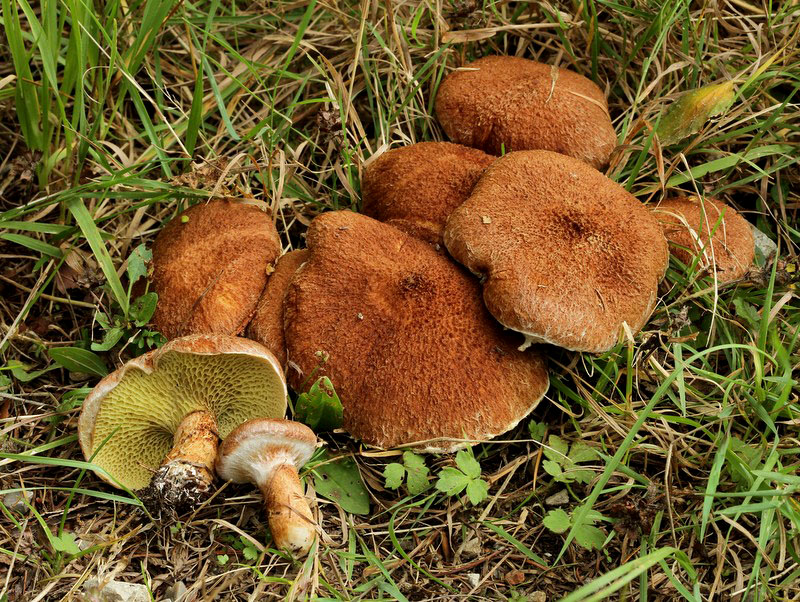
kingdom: Fungi
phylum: Basidiomycota
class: Agaricomycetes
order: Boletales
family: Suillaceae
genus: Suillus
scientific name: Suillus cavipes
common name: hulstokket slimrørhat
